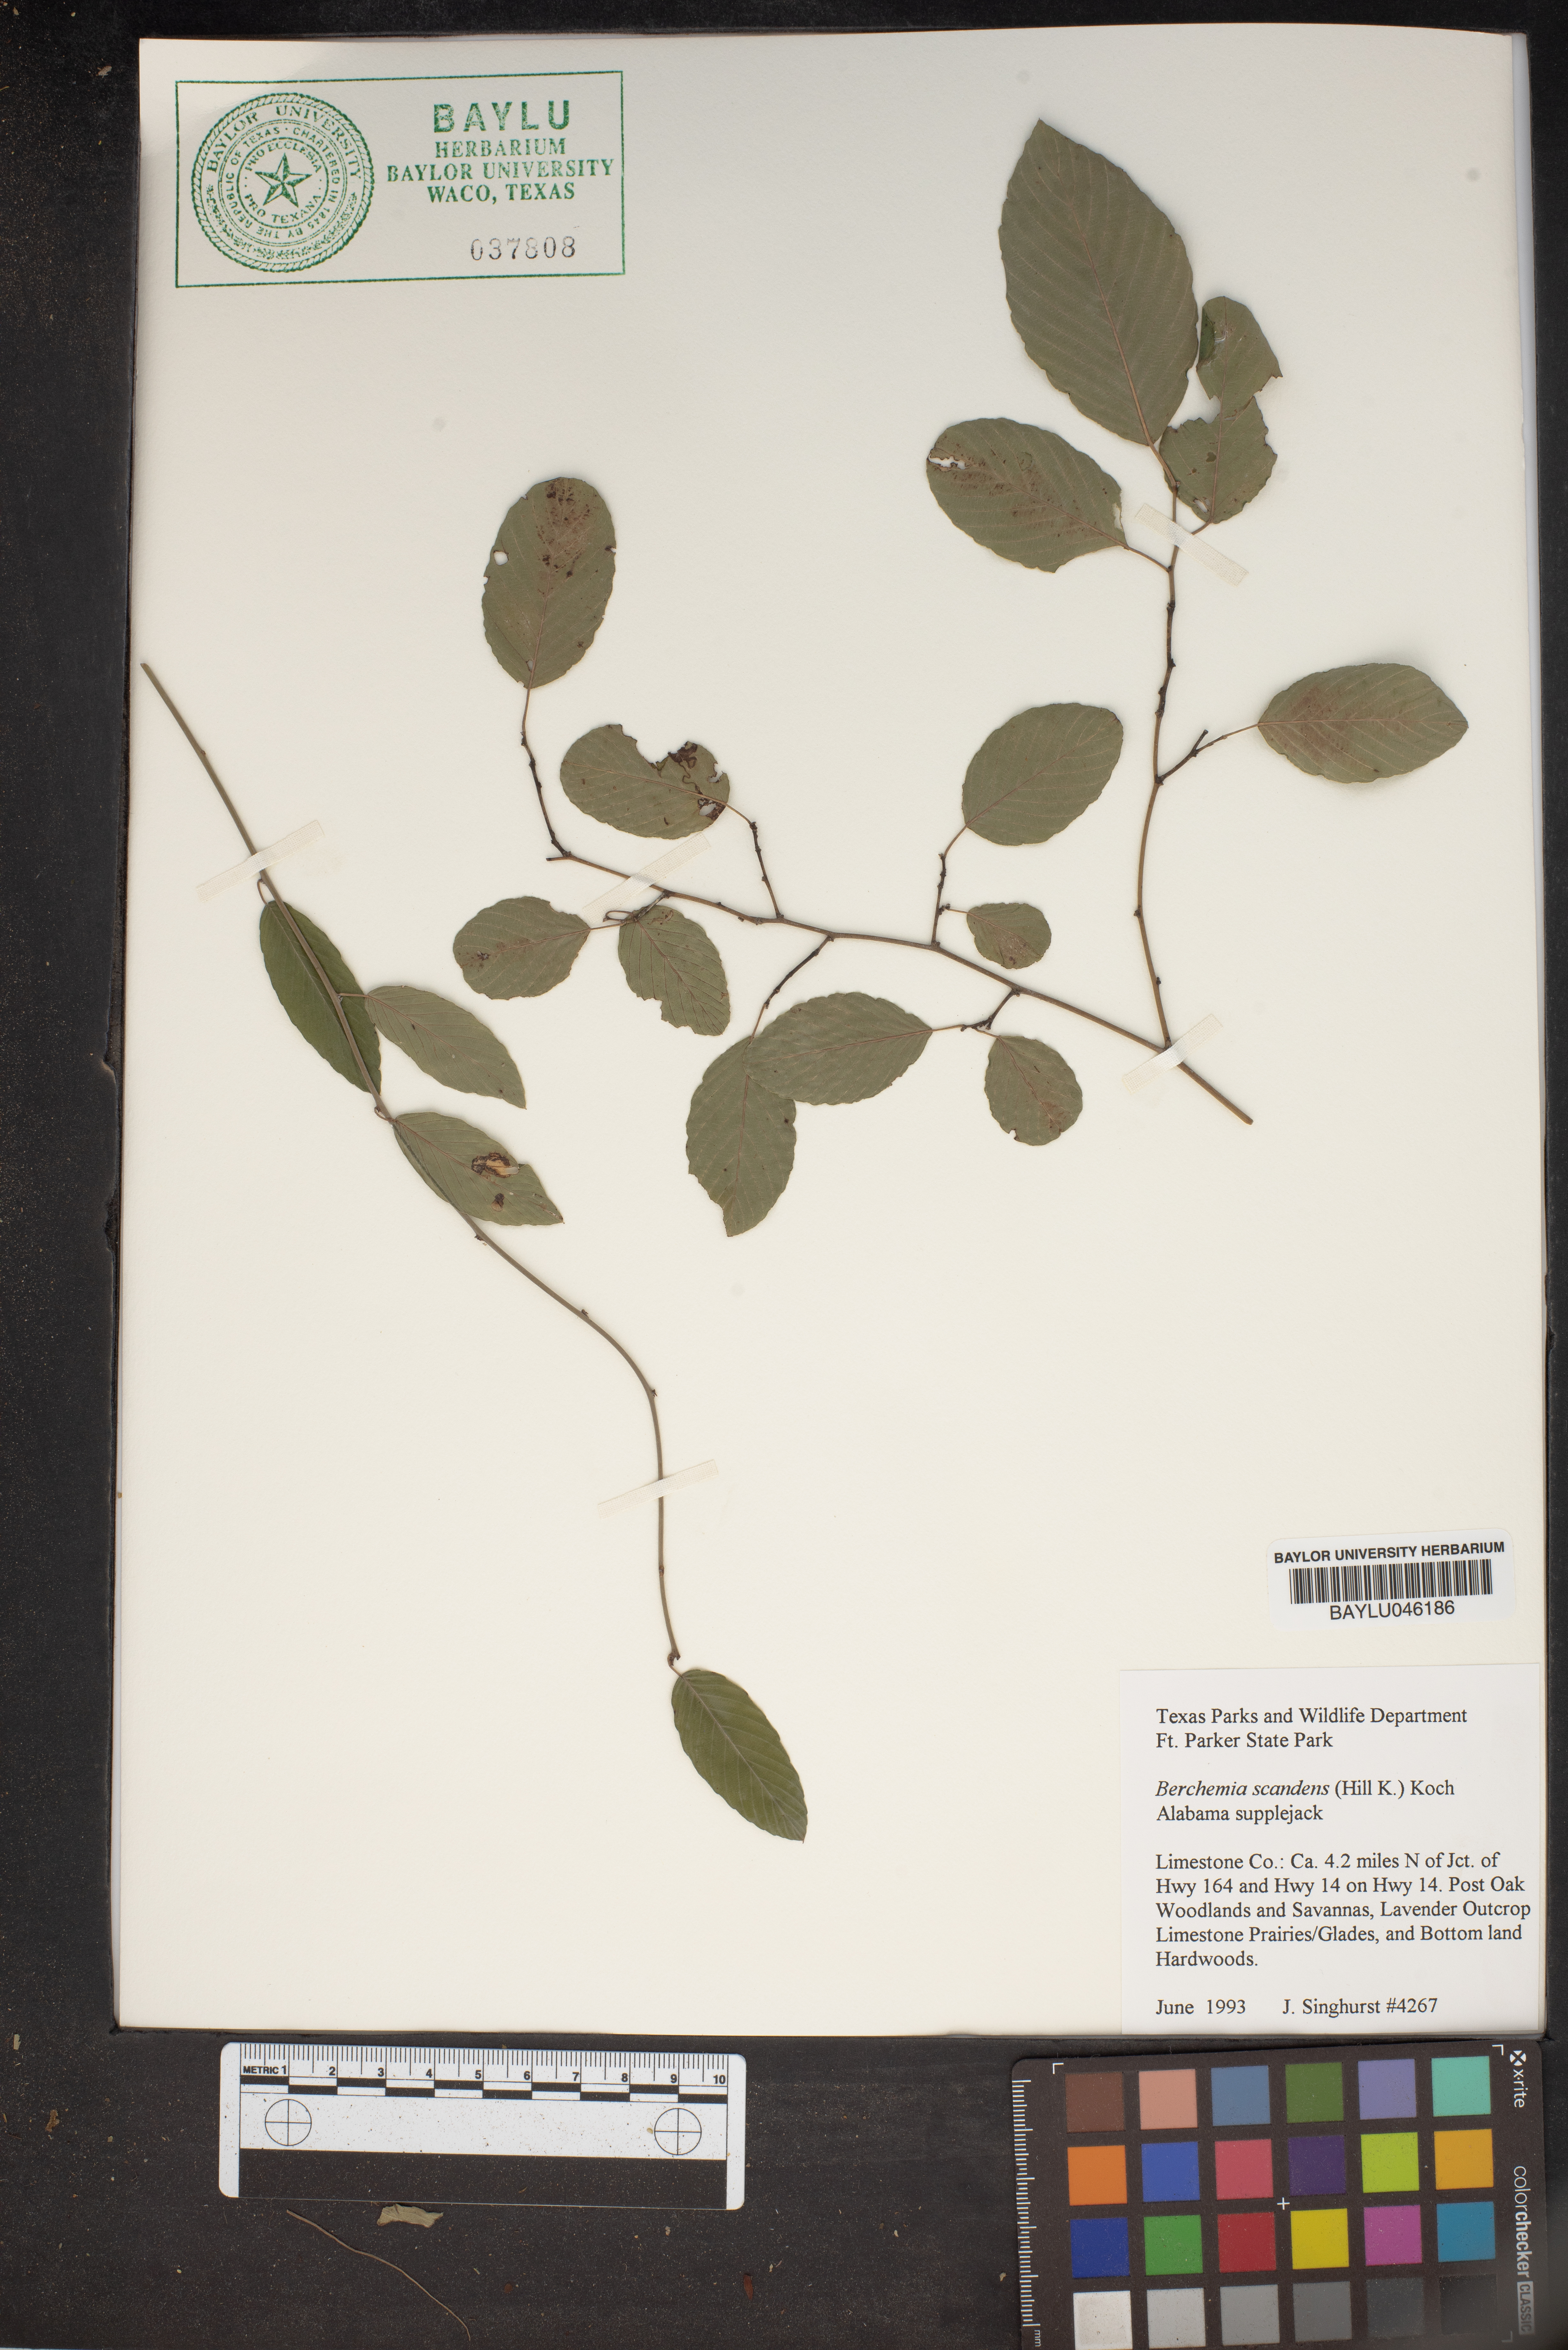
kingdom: Plantae
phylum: Tracheophyta
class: Magnoliopsida
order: Rosales
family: Rhamnaceae
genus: Berchemia
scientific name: Berchemia scandens
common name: Supplejack
